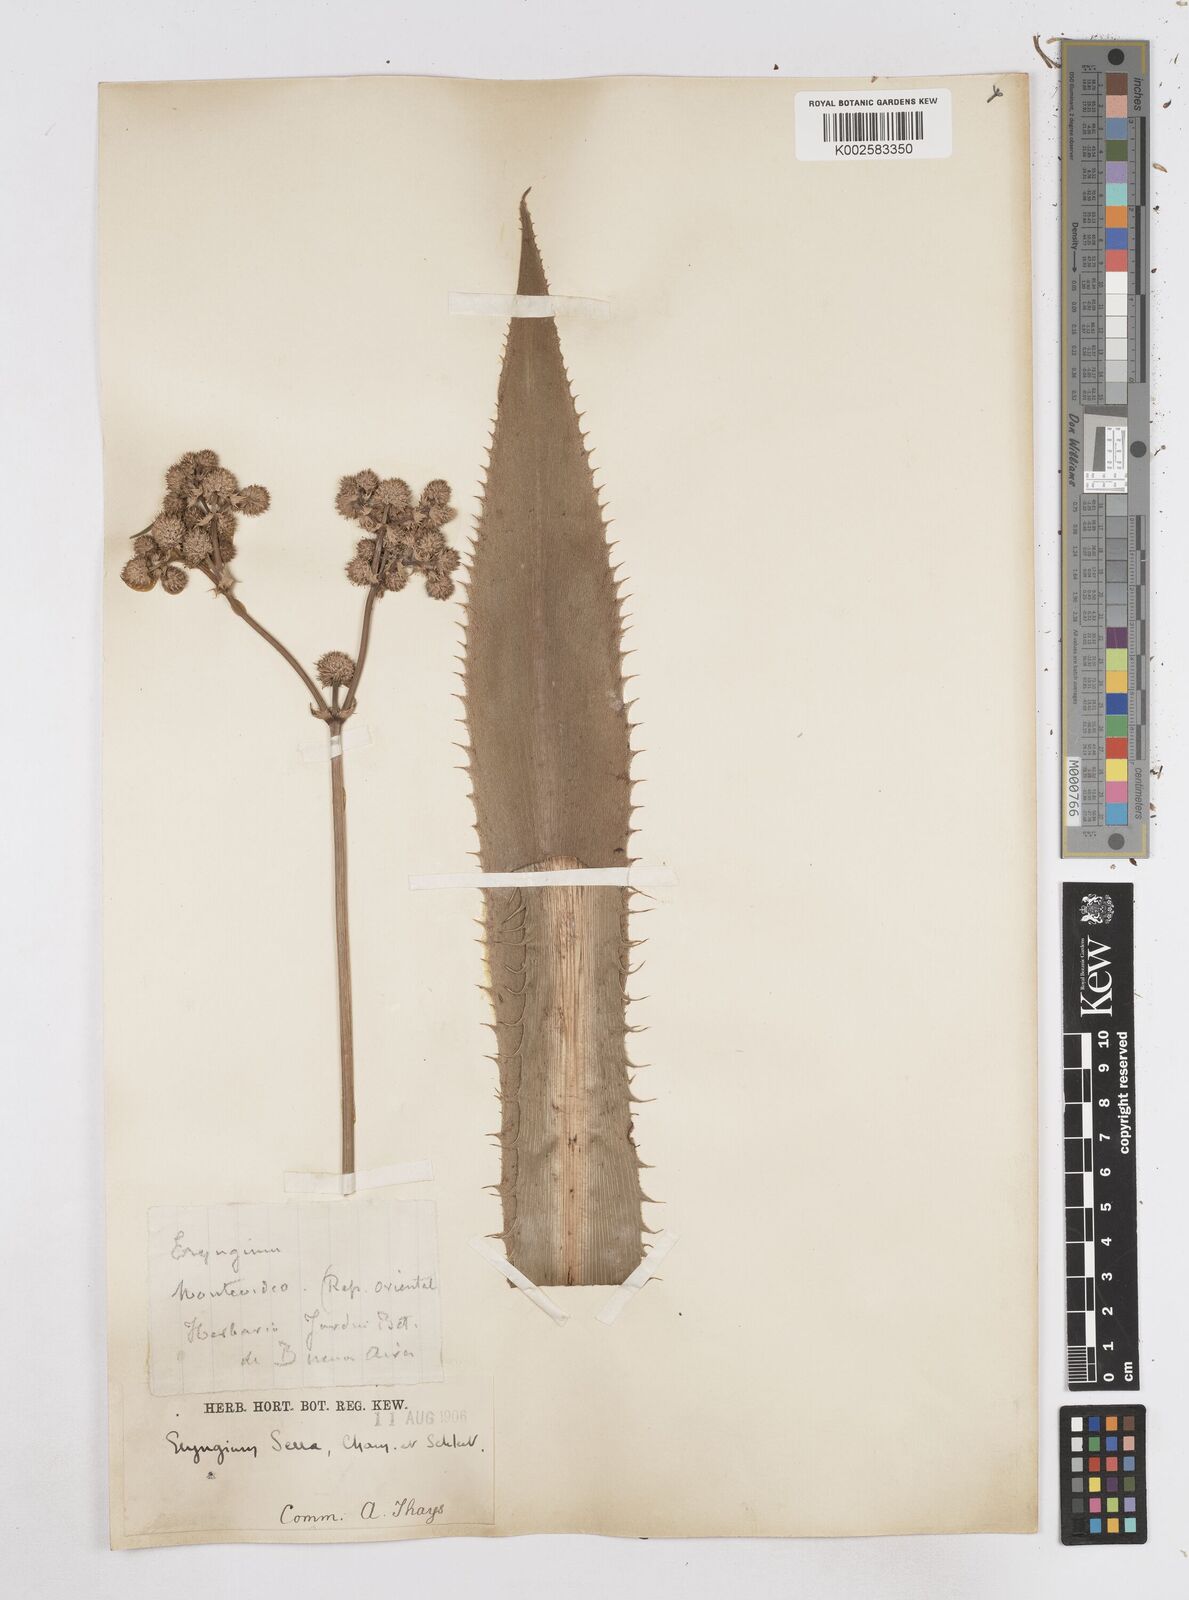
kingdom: Plantae
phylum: Tracheophyta
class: Magnoliopsida
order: Apiales
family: Apiaceae
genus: Eryngium
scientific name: Eryngium serra
